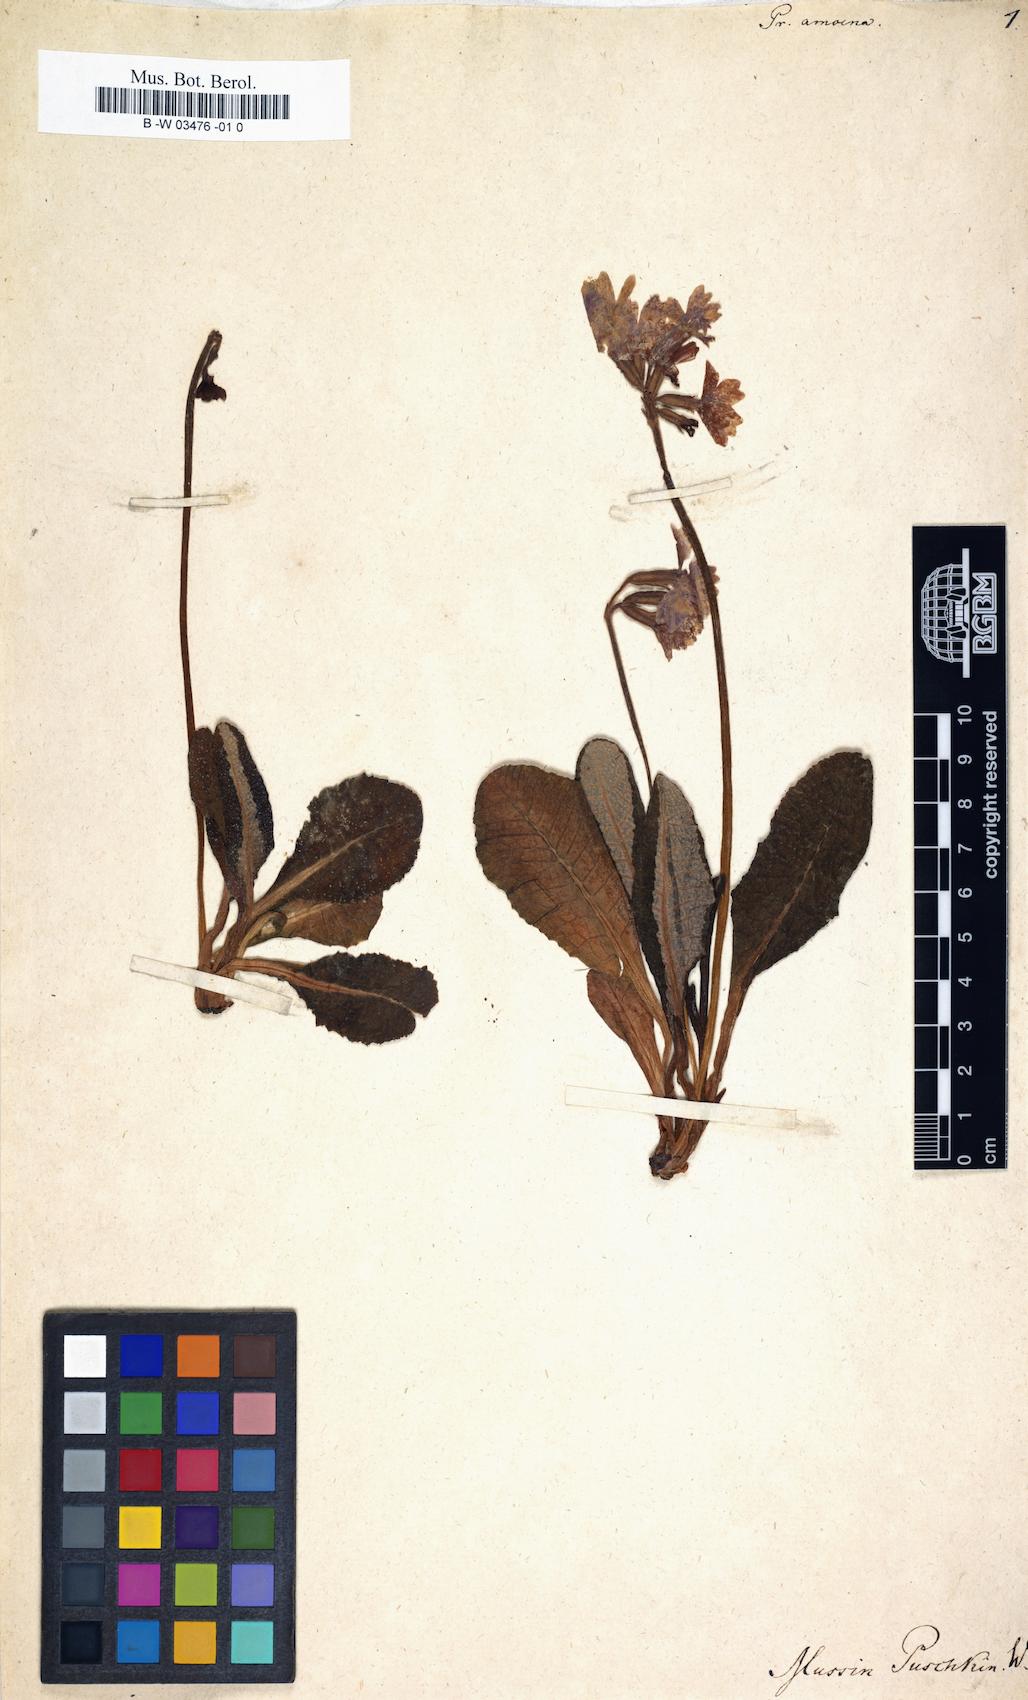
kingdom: Plantae
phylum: Tracheophyta
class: Magnoliopsida
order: Ericales
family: Primulaceae
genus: Primula
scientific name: Primula amoena
